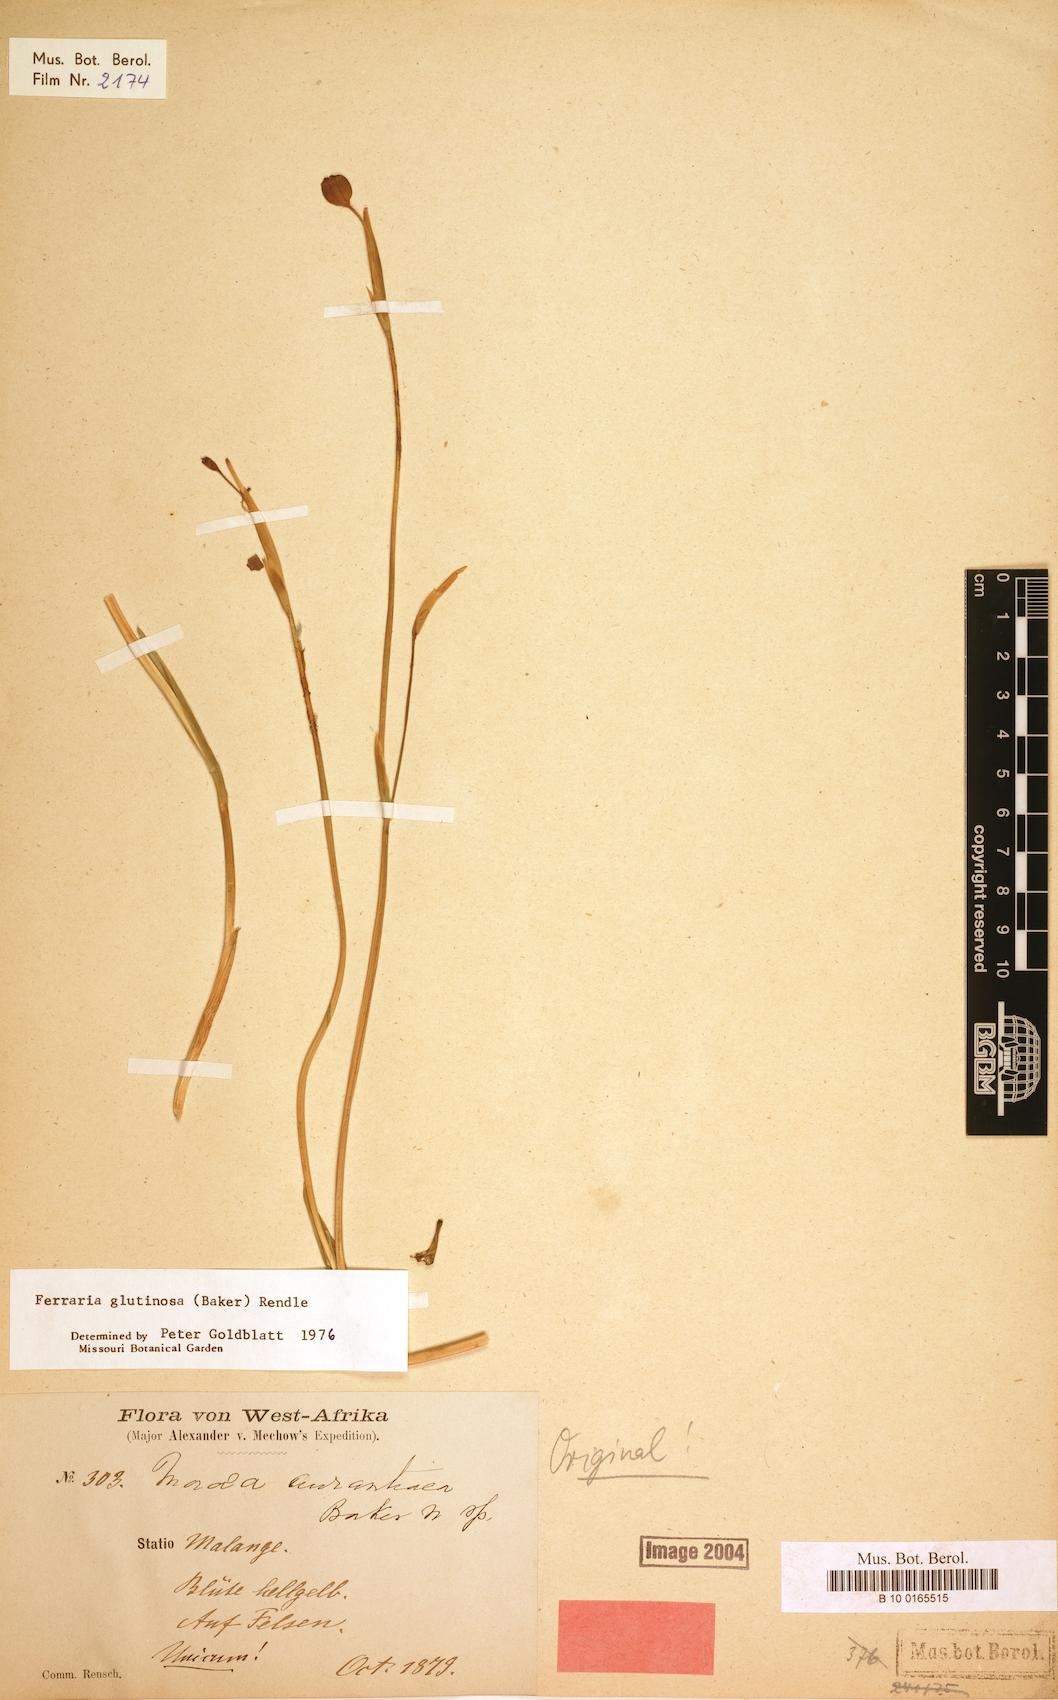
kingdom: Plantae
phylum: Tracheophyta
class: Liliopsida
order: Asparagales
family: Iridaceae
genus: Ferraria
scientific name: Ferraria glutinosa
